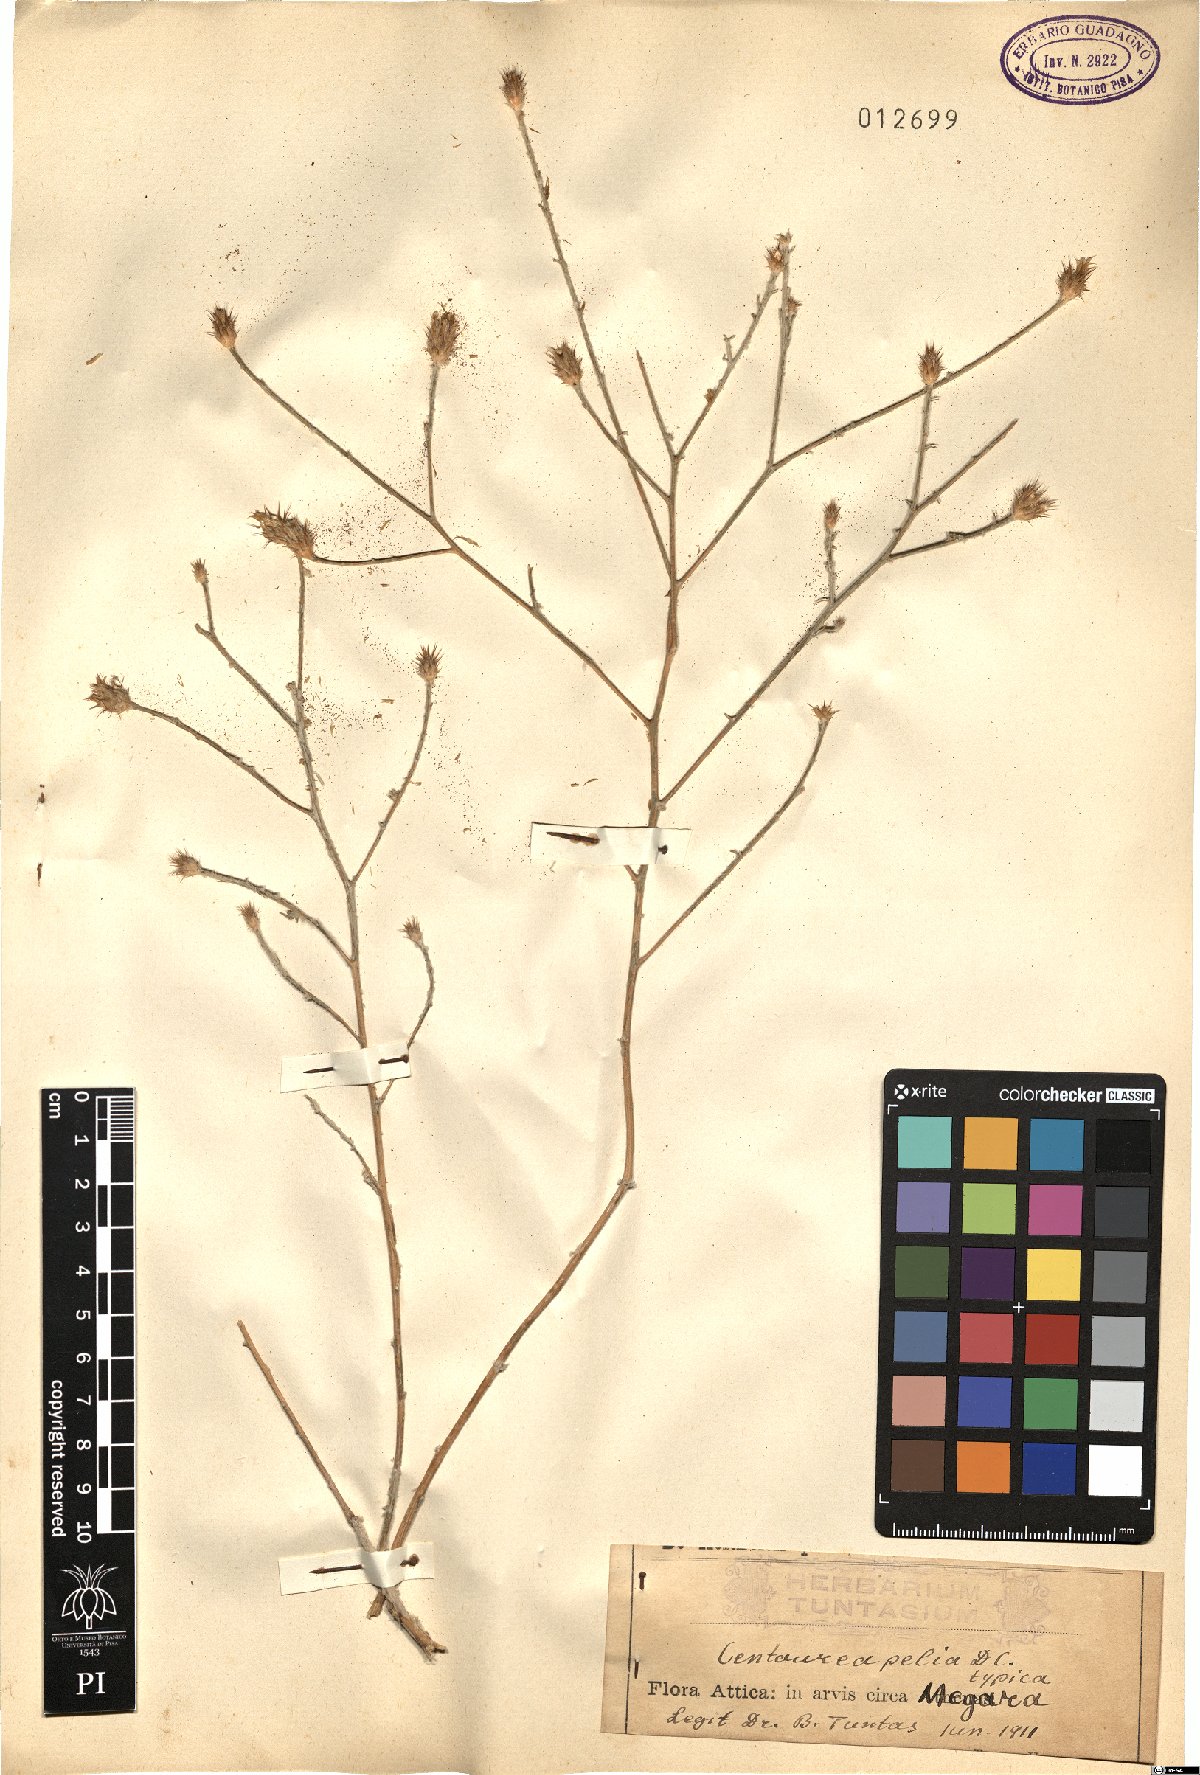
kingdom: Plantae
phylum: Tracheophyta
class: Magnoliopsida
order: Asterales
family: Asteraceae
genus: Centaurea
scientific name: Centaurea pelia
